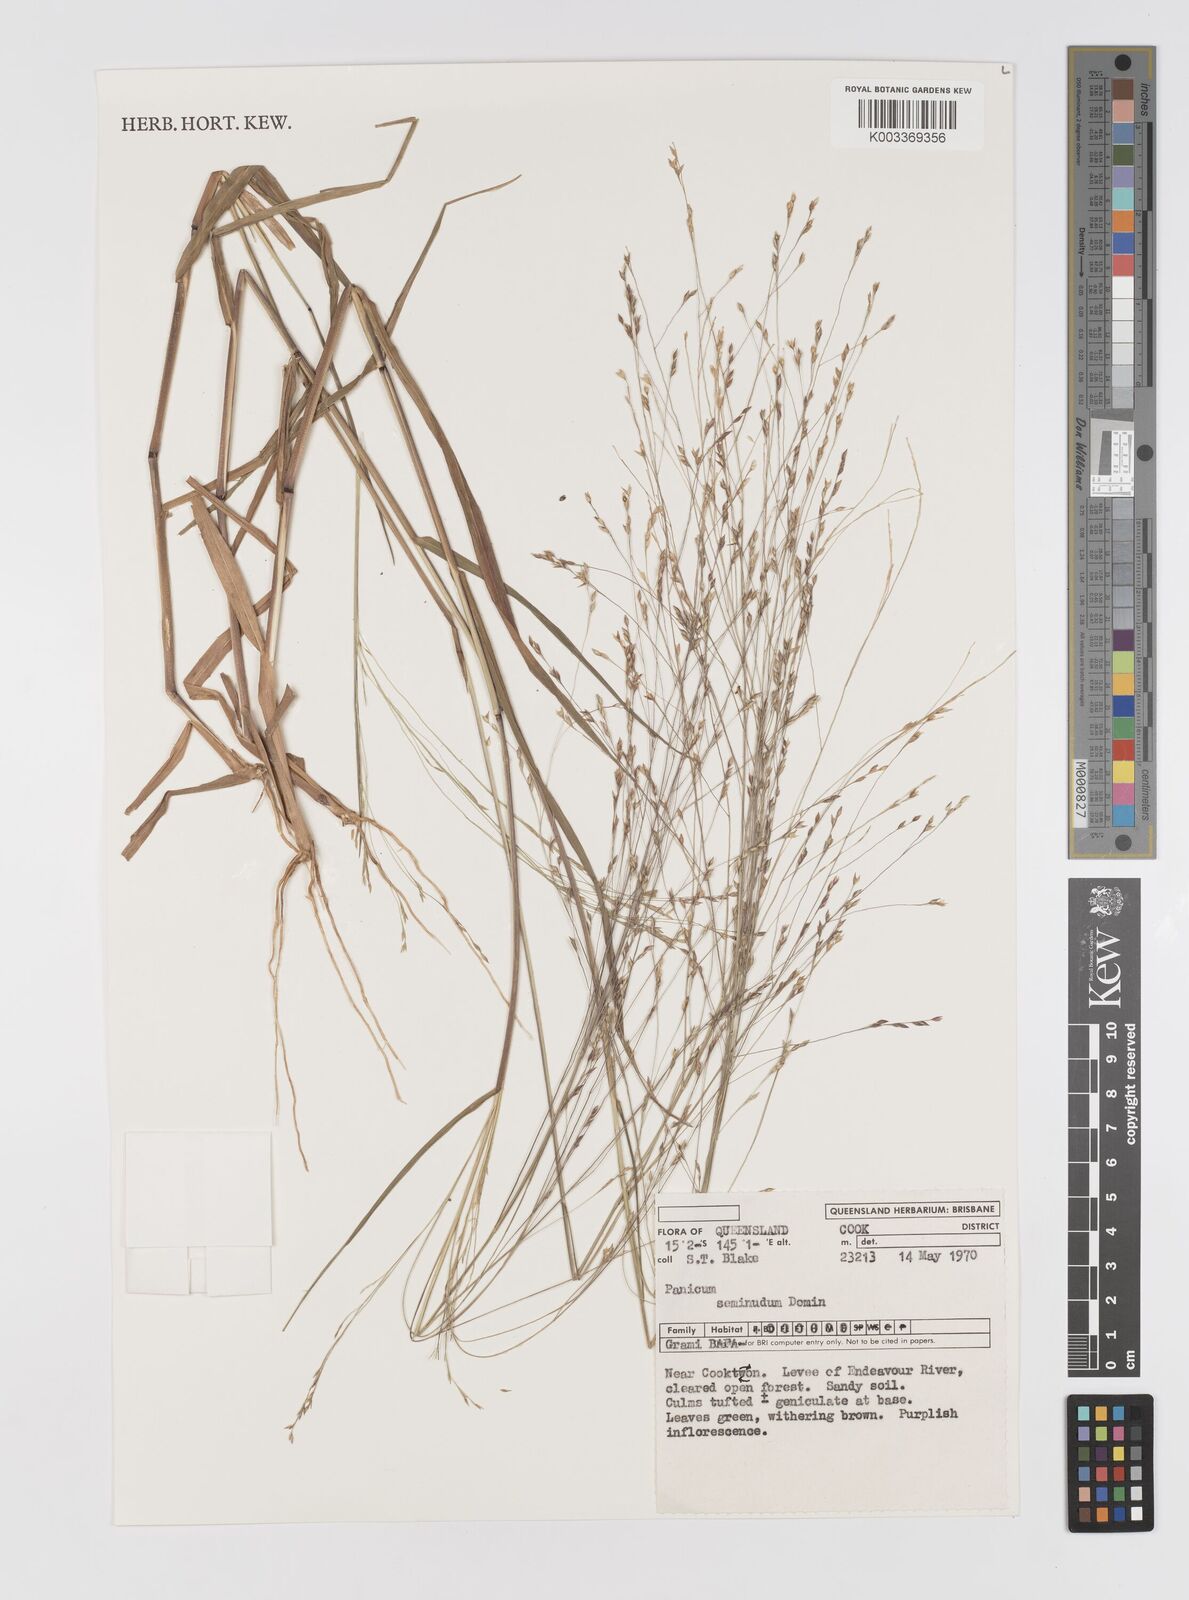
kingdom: Plantae
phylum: Tracheophyta
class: Liliopsida
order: Poales
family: Poaceae
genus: Panicum
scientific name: Panicum seminudum
